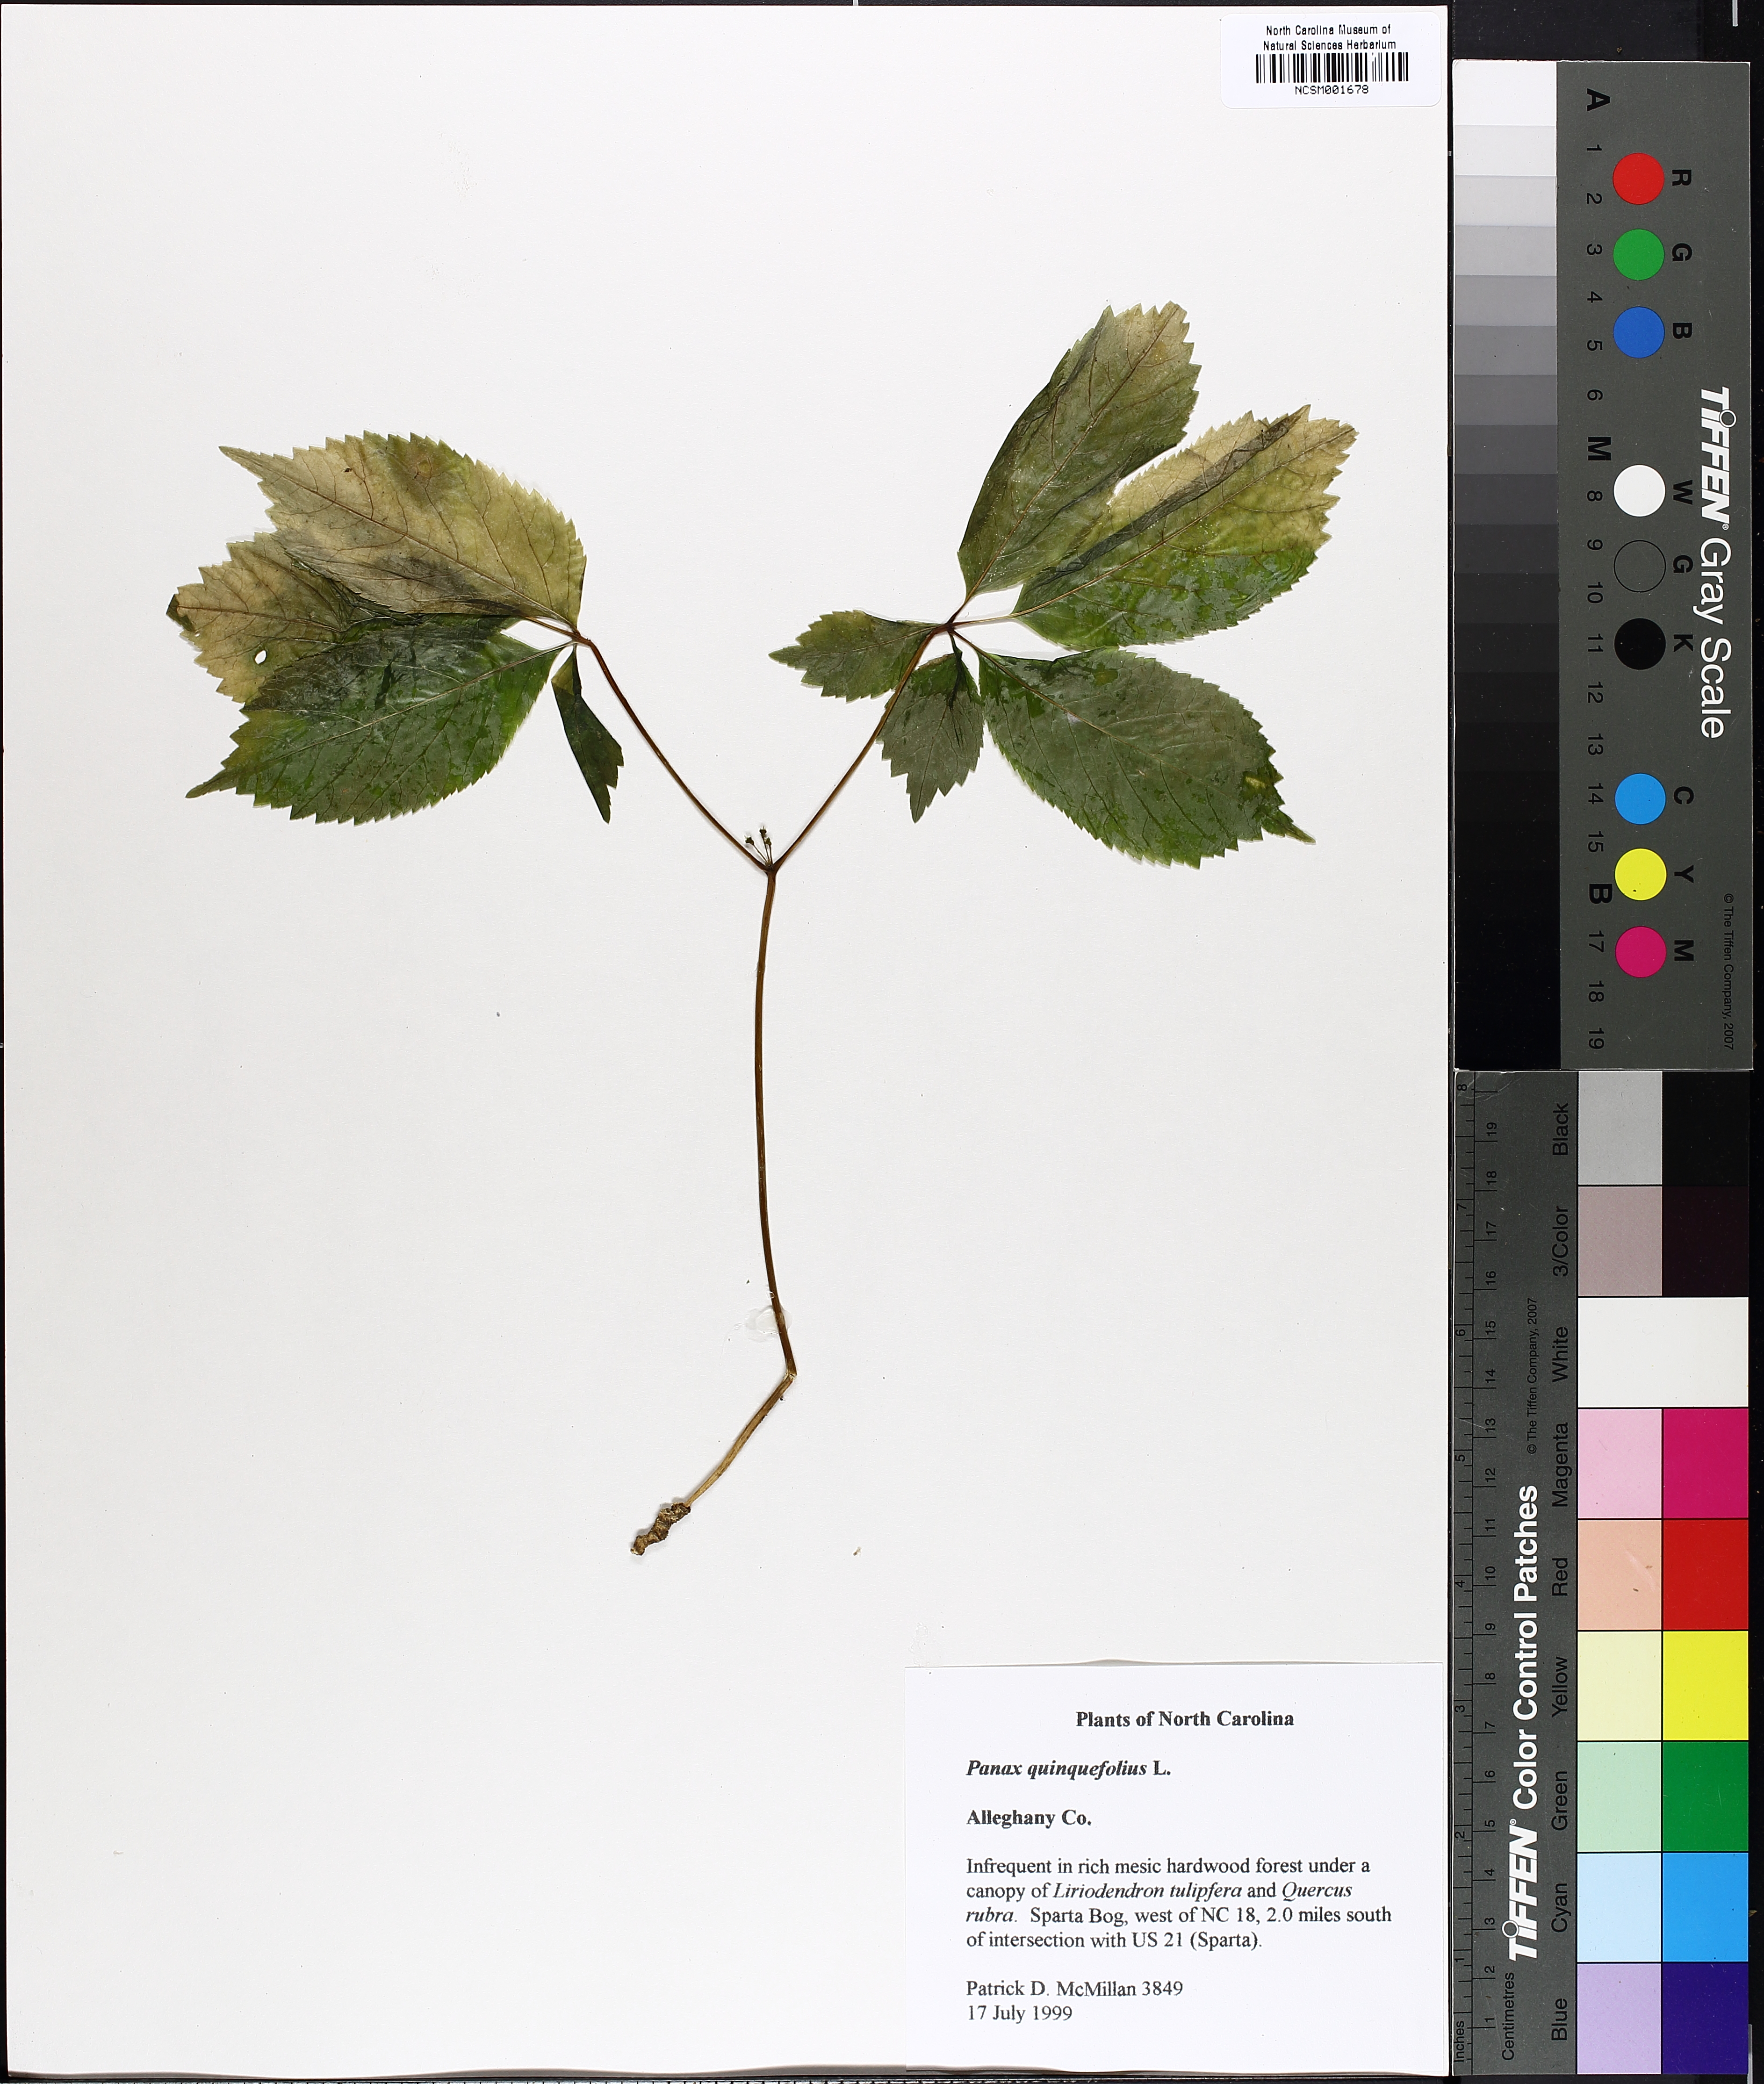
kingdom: Plantae
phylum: Tracheophyta
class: Magnoliopsida
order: Apiales
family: Araliaceae
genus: Panax
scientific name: Panax quinquefolius
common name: American ginseng
